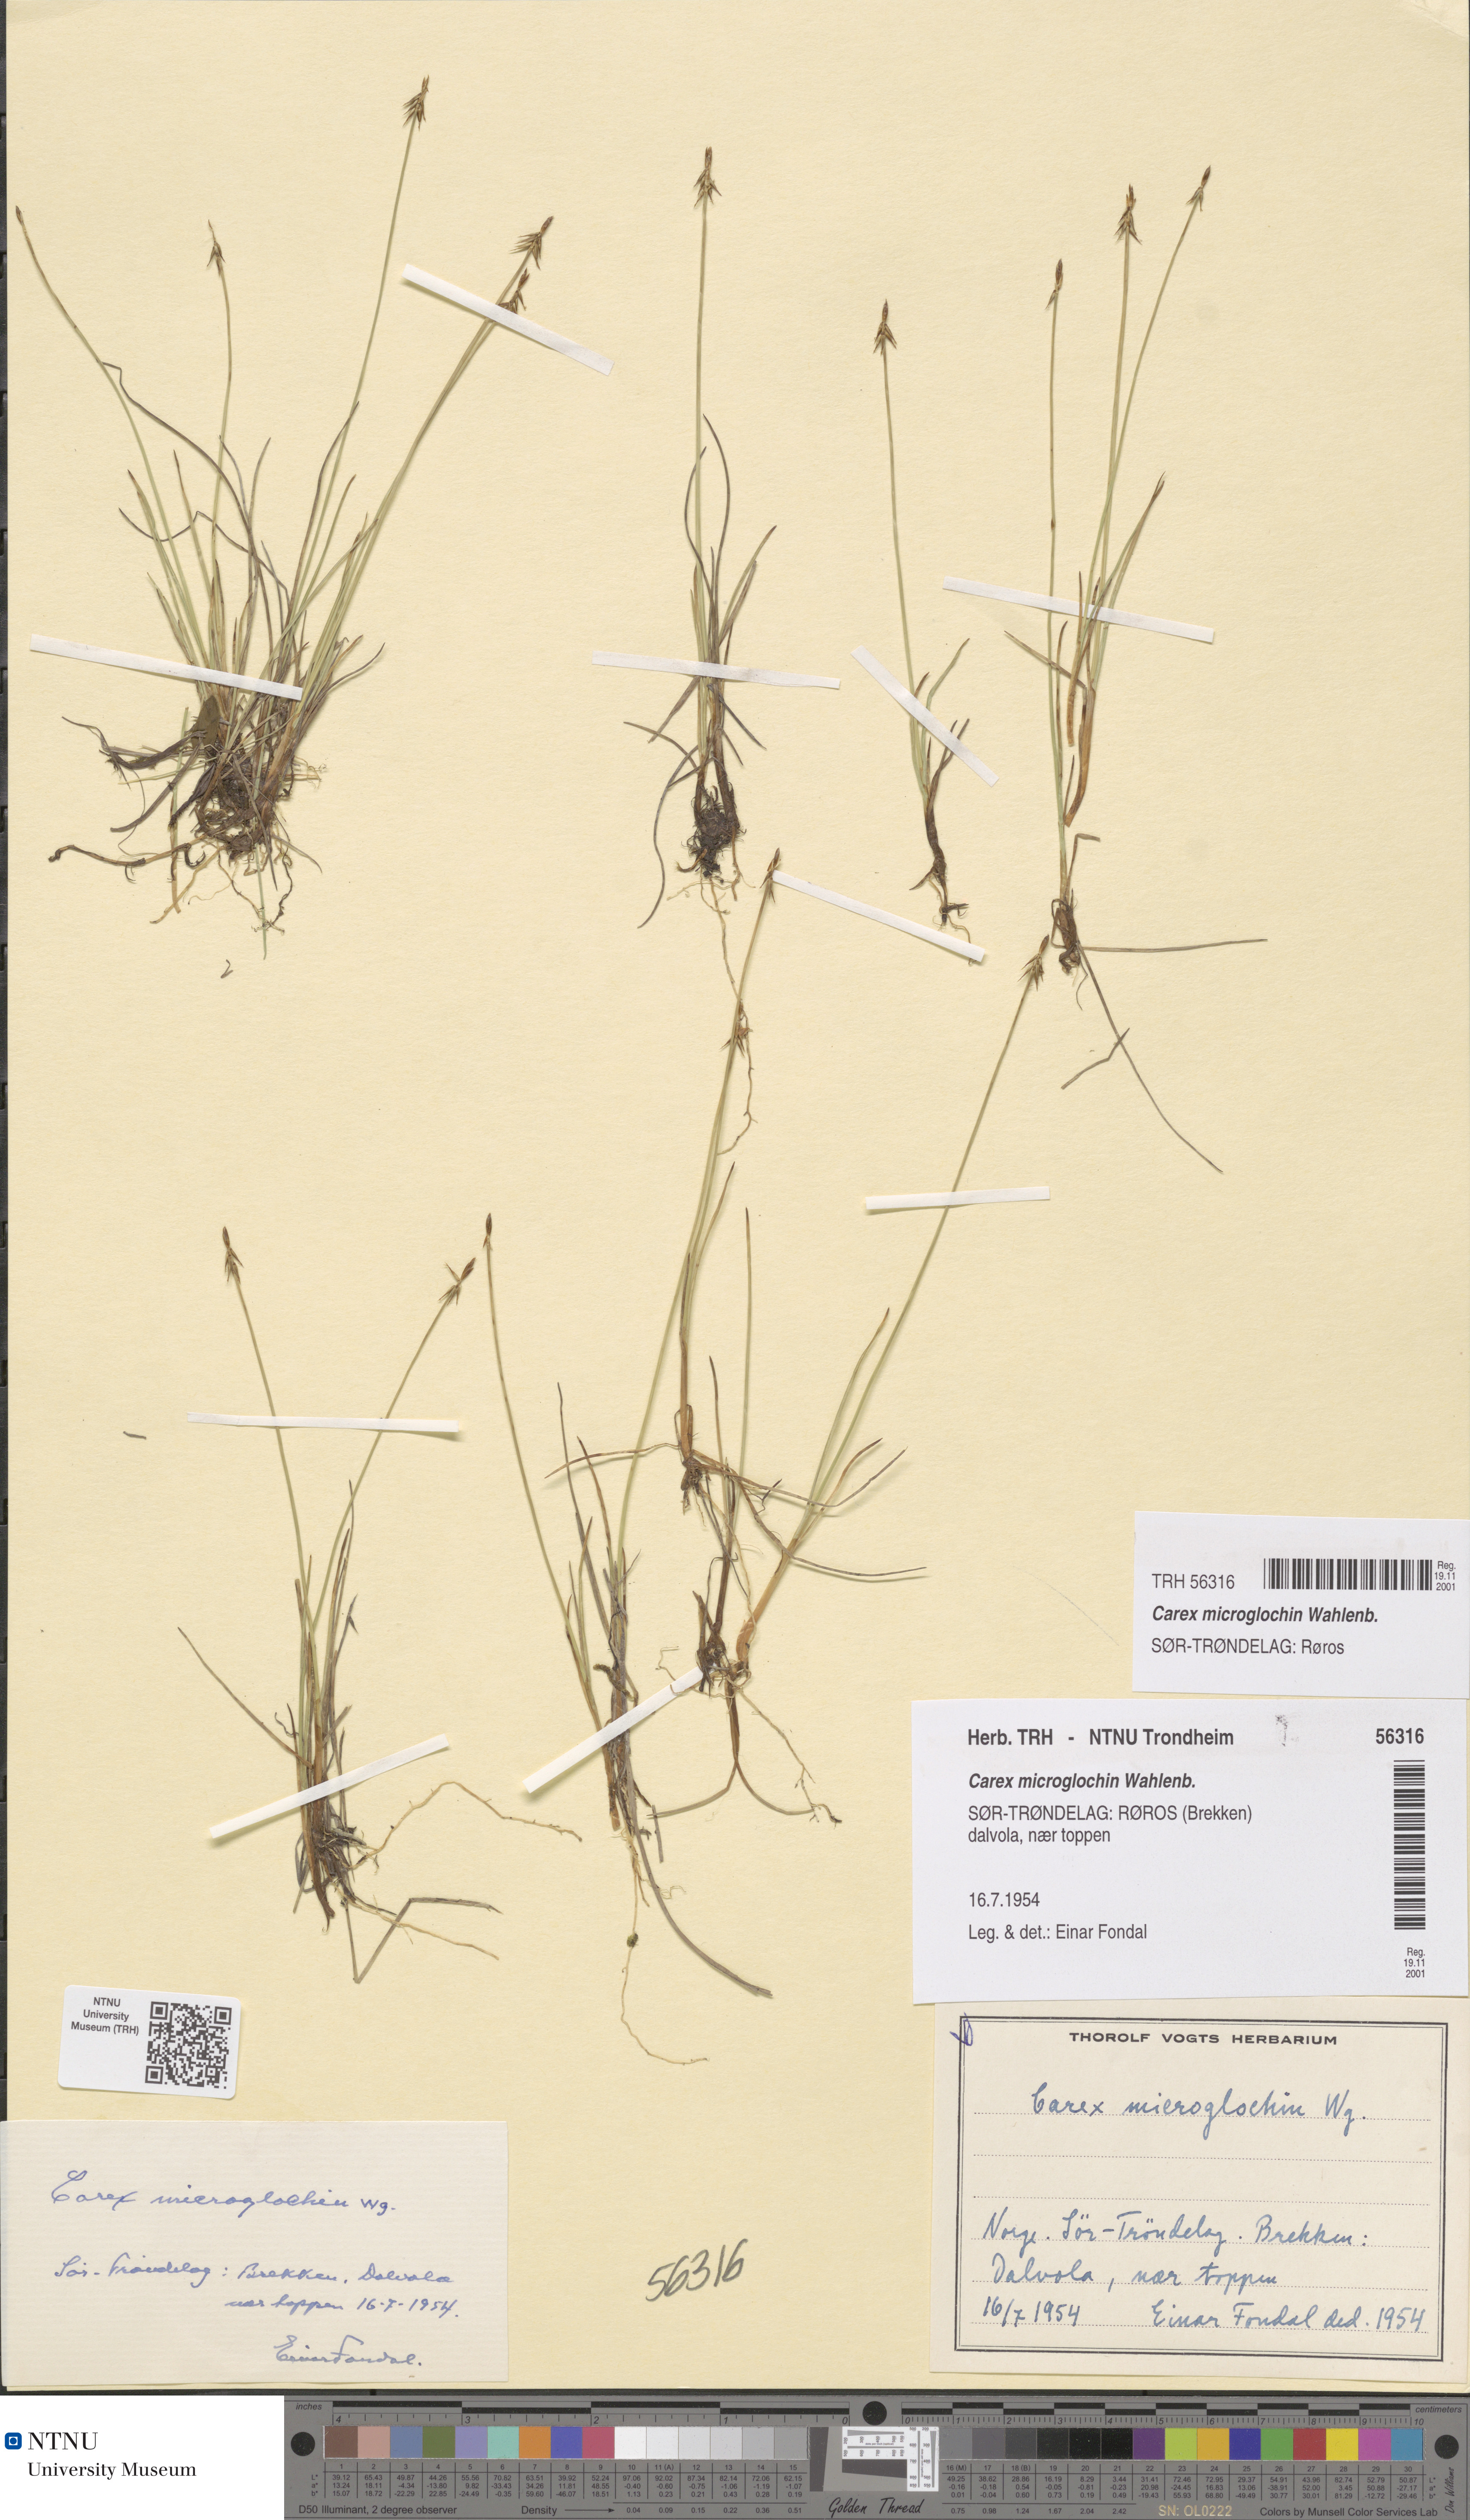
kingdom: Plantae
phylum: Tracheophyta
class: Liliopsida
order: Poales
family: Cyperaceae
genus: Carex
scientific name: Carex microglochin
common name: Bristle sedge
